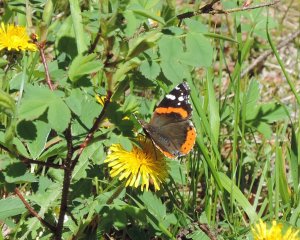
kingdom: Animalia
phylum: Arthropoda
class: Insecta
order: Lepidoptera
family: Nymphalidae
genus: Vanessa
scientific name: Vanessa atalanta
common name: Red Admiral
